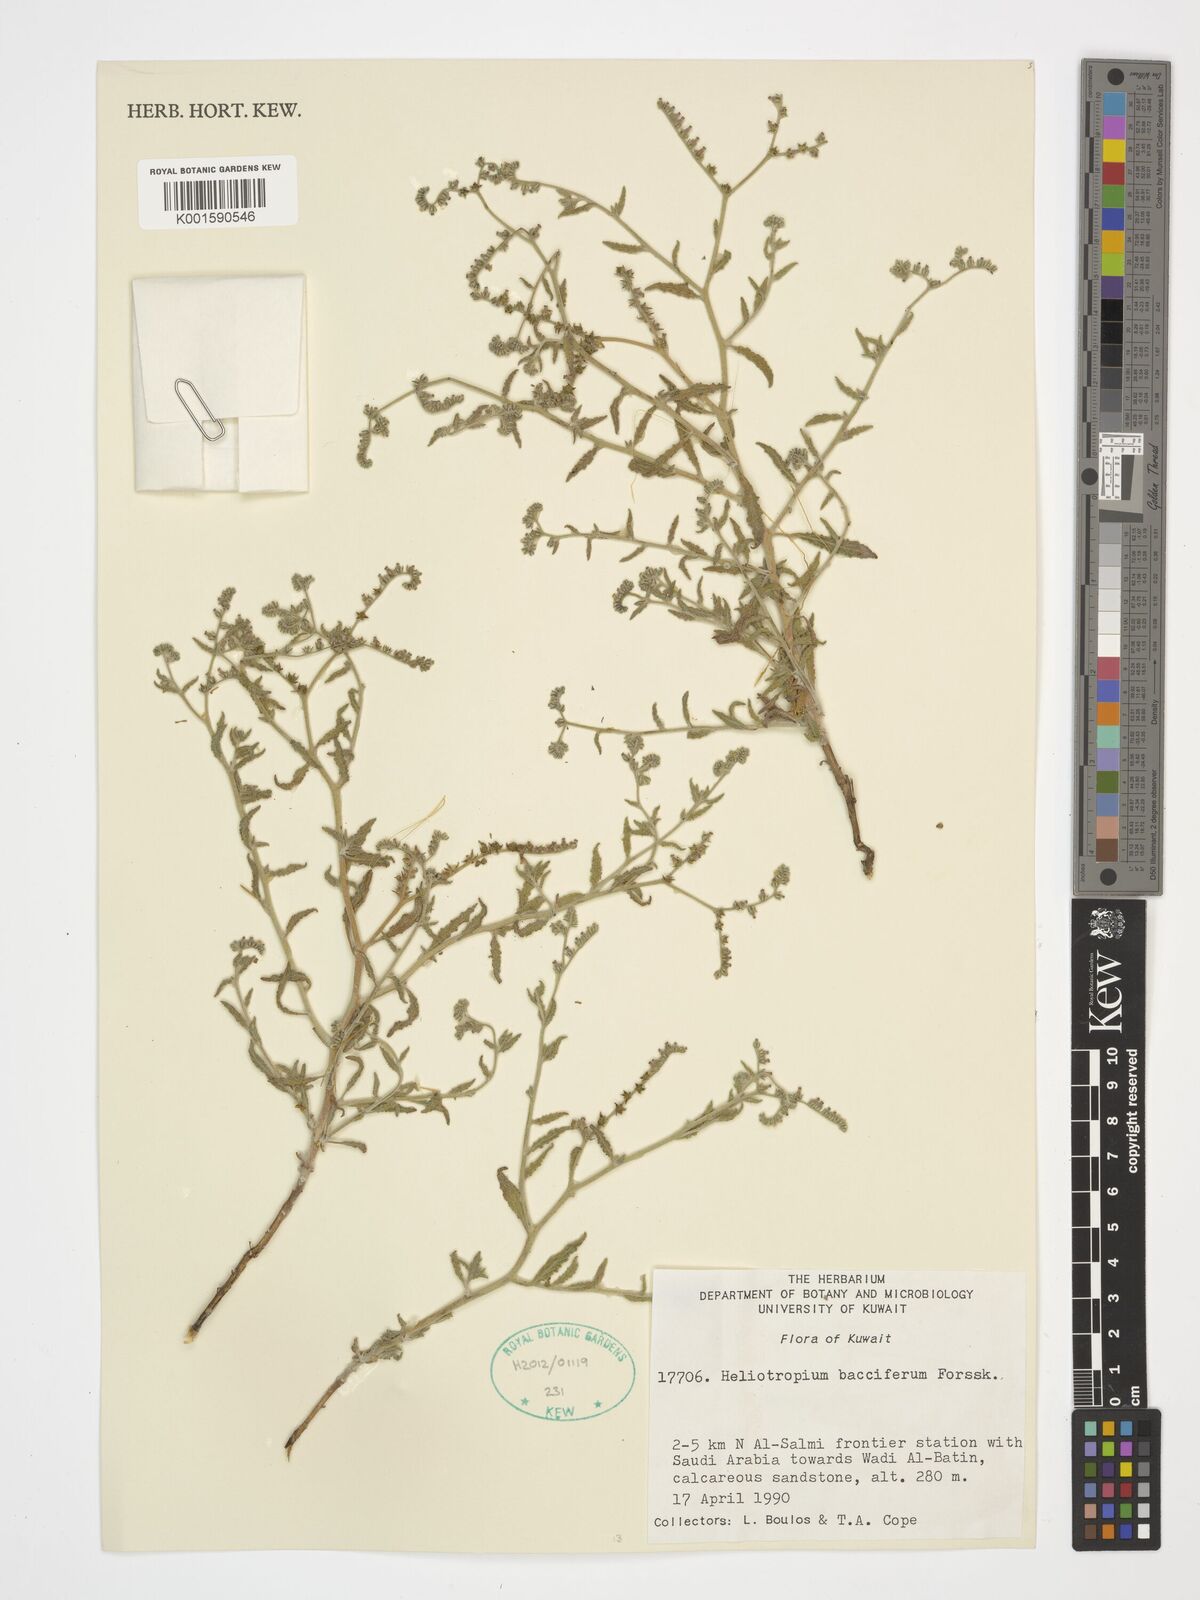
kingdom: Plantae
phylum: Tracheophyta
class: Magnoliopsida
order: Boraginales
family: Heliotropiaceae
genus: Heliotropium
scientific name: Heliotropium bacciferum
